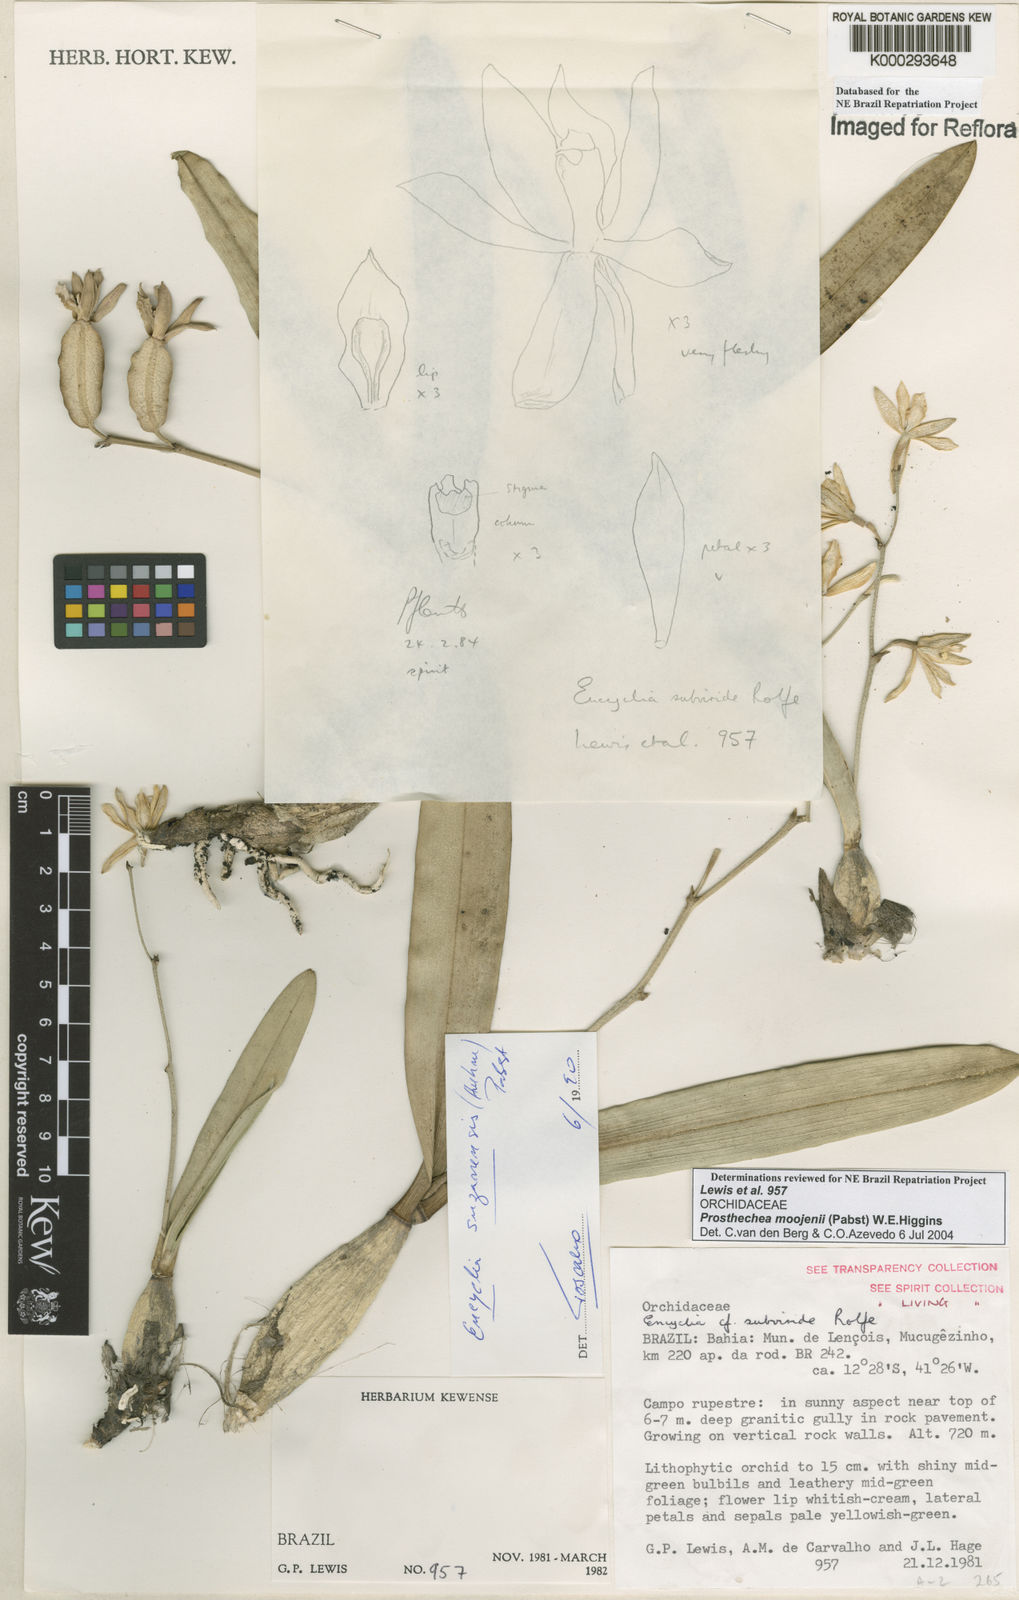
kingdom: Plantae
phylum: Tracheophyta
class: Liliopsida
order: Asparagales
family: Orchidaceae
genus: Prosthechea
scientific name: Prosthechea moojenii
